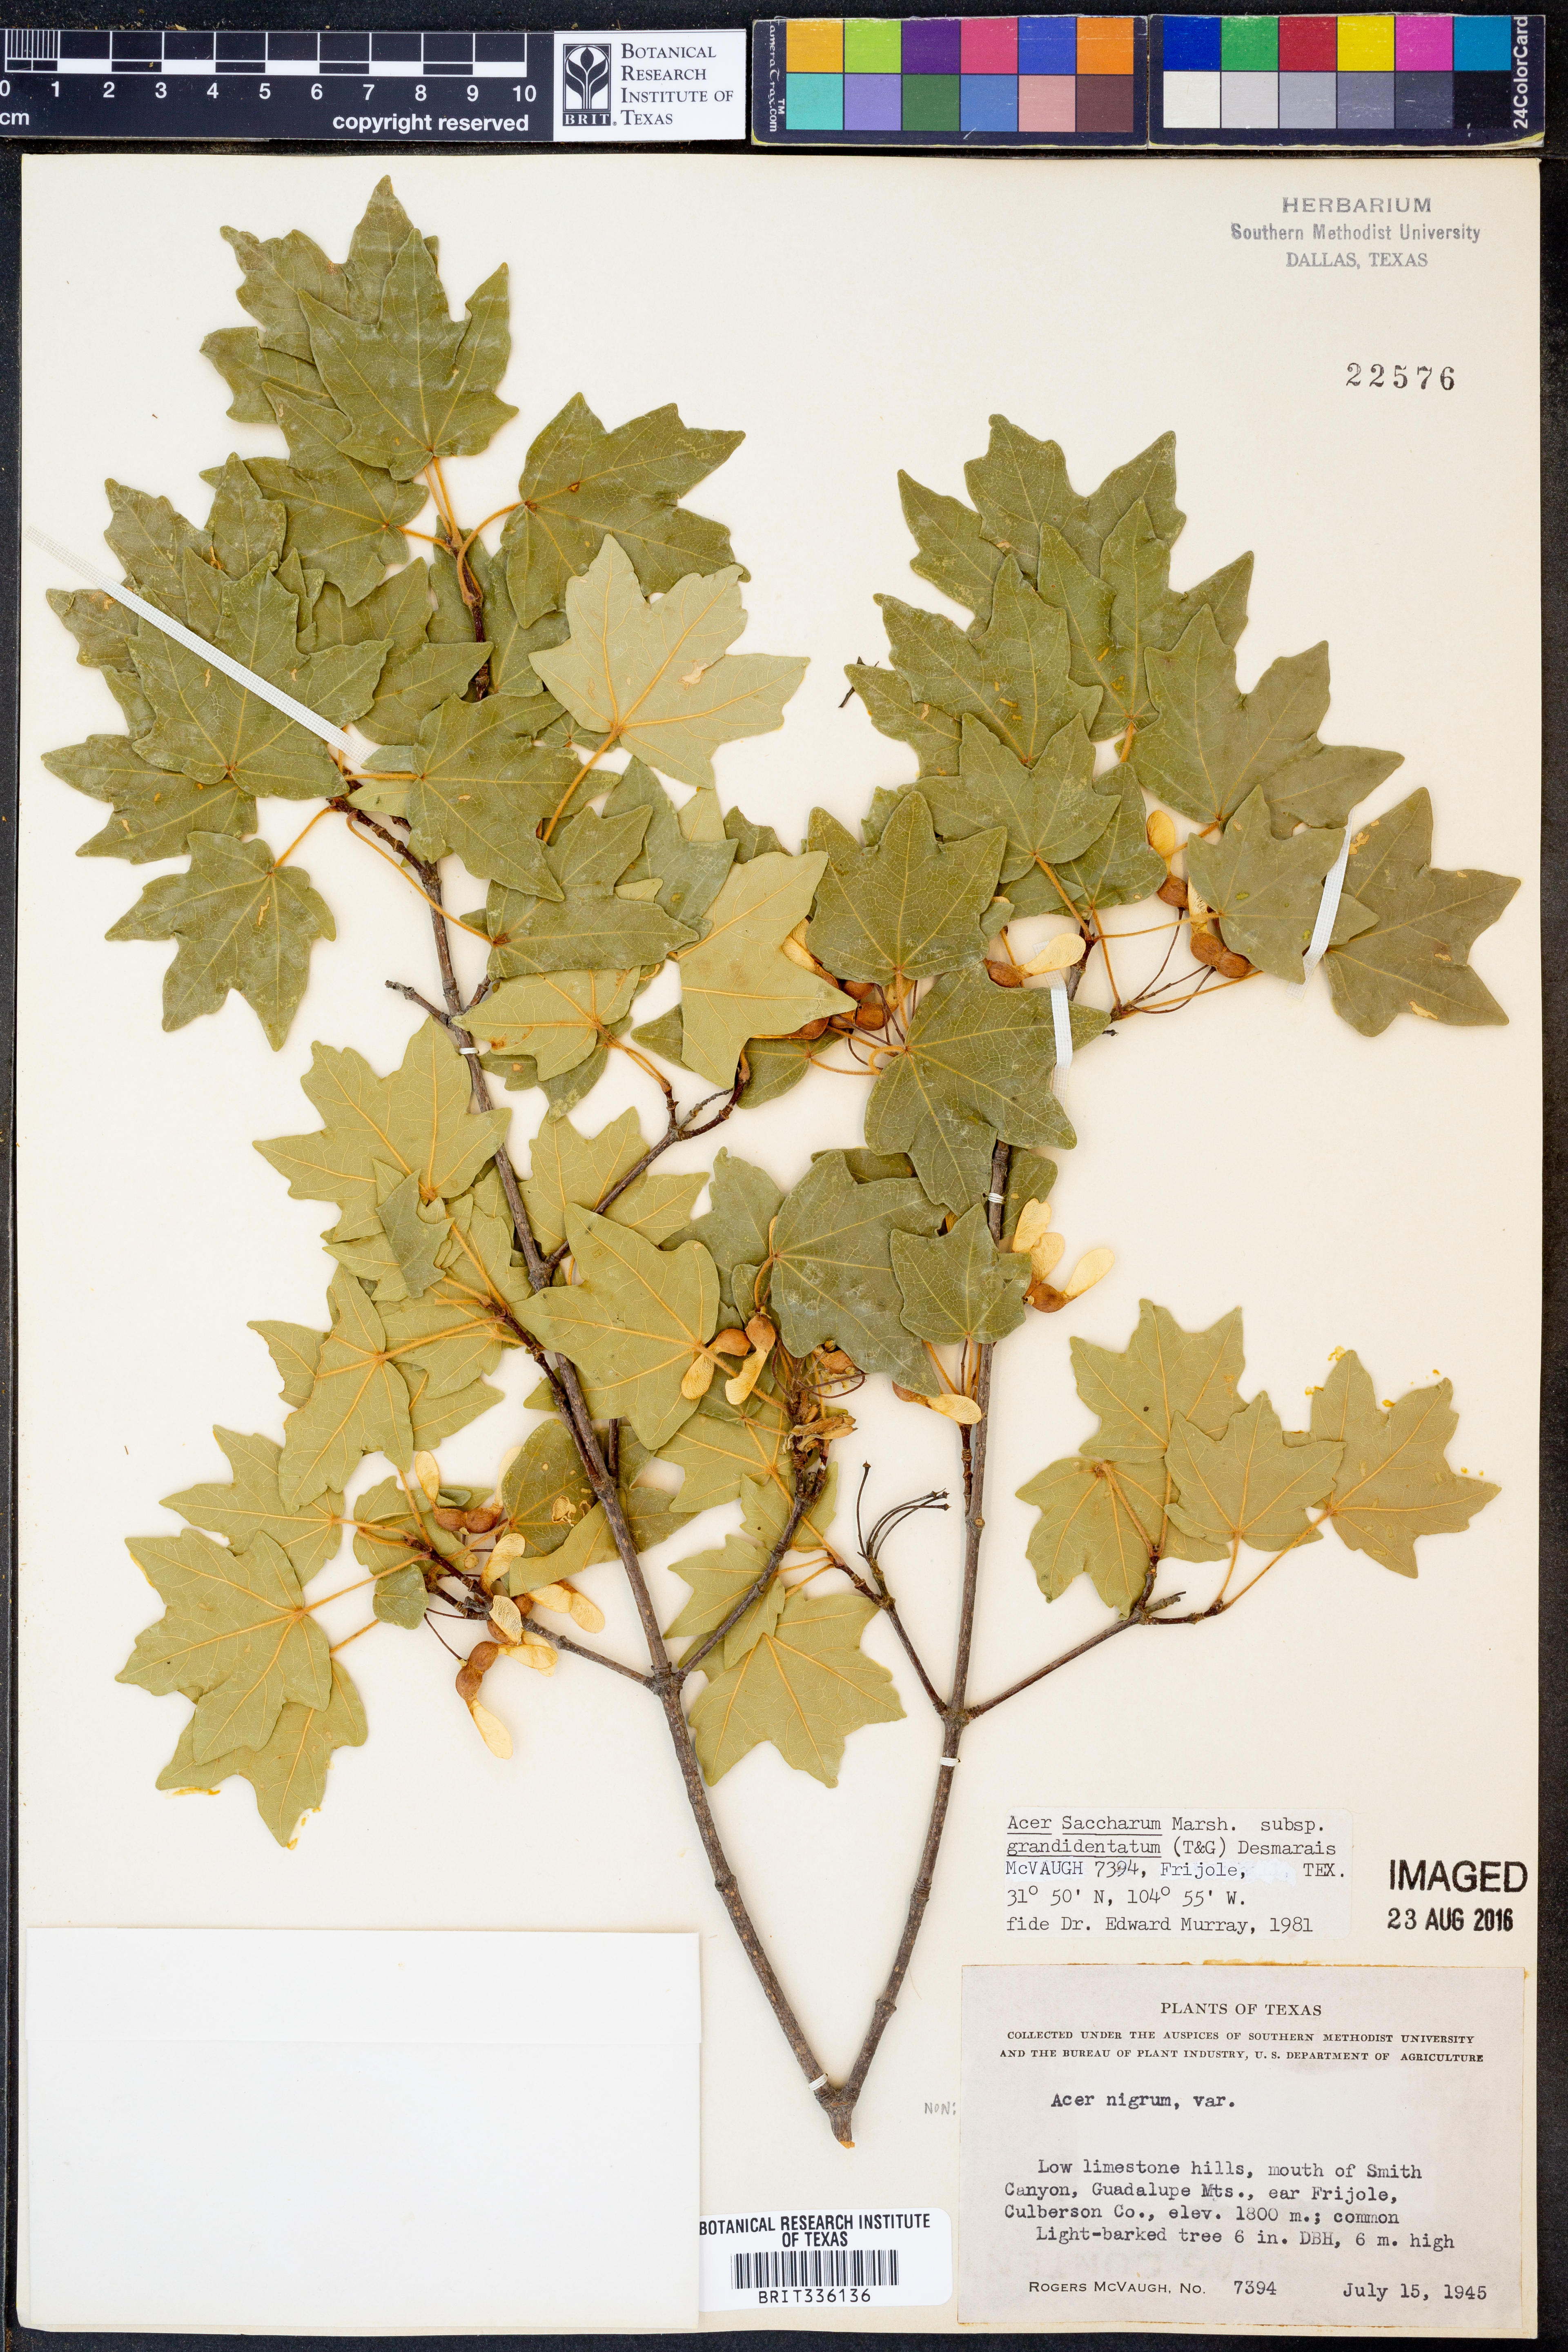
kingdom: Plantae
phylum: Tracheophyta
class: Magnoliopsida
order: Sapindales
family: Sapindaceae
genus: Acer
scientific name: Acer grandidentatum
